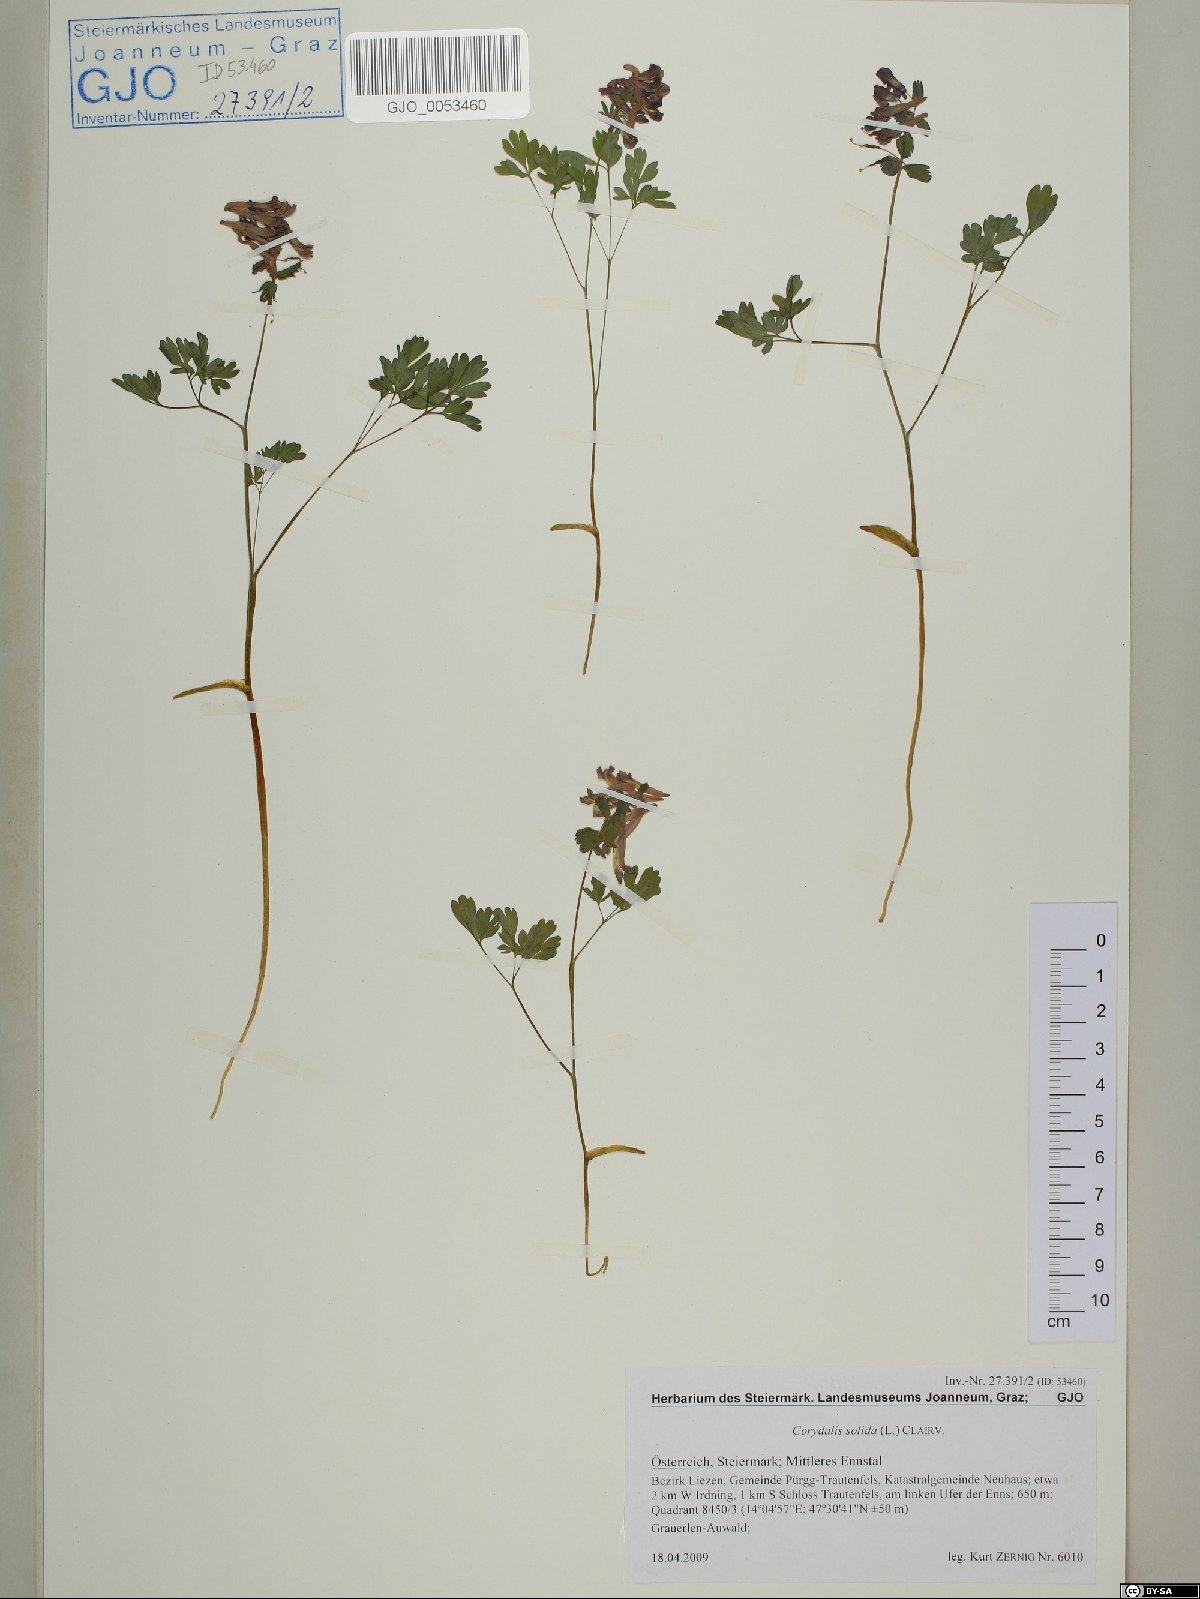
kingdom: Plantae
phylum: Tracheophyta
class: Magnoliopsida
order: Ranunculales
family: Papaveraceae
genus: Corydalis
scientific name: Corydalis solida
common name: Bird-in-a-bush
